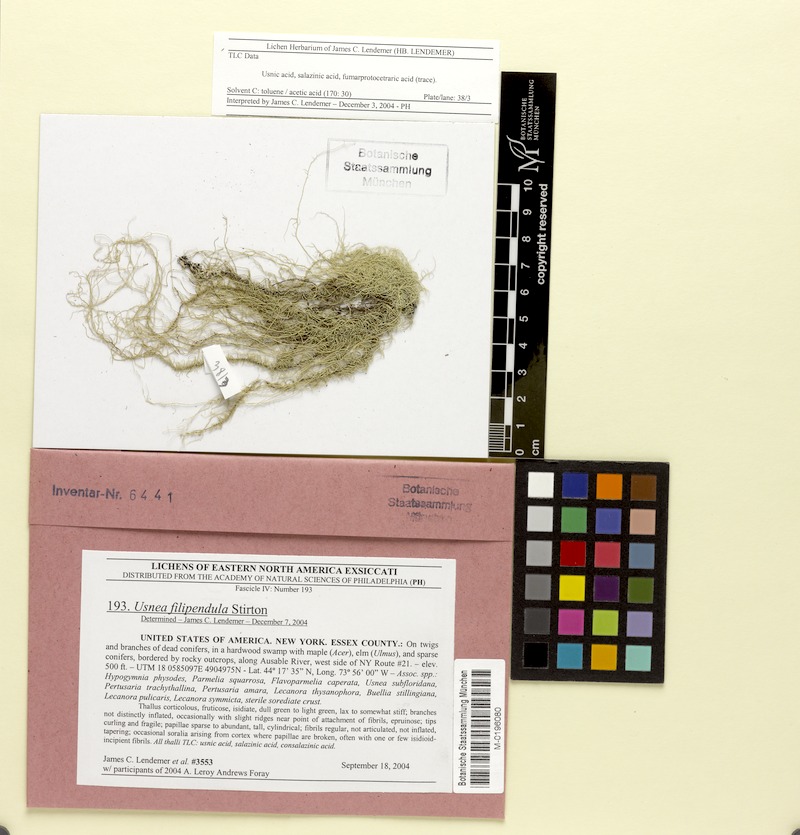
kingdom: Fungi
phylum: Ascomycota
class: Lecanoromycetes
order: Lecanorales
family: Parmeliaceae
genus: Usnea
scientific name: Usnea filipendula
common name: Fishbone beard lichen
